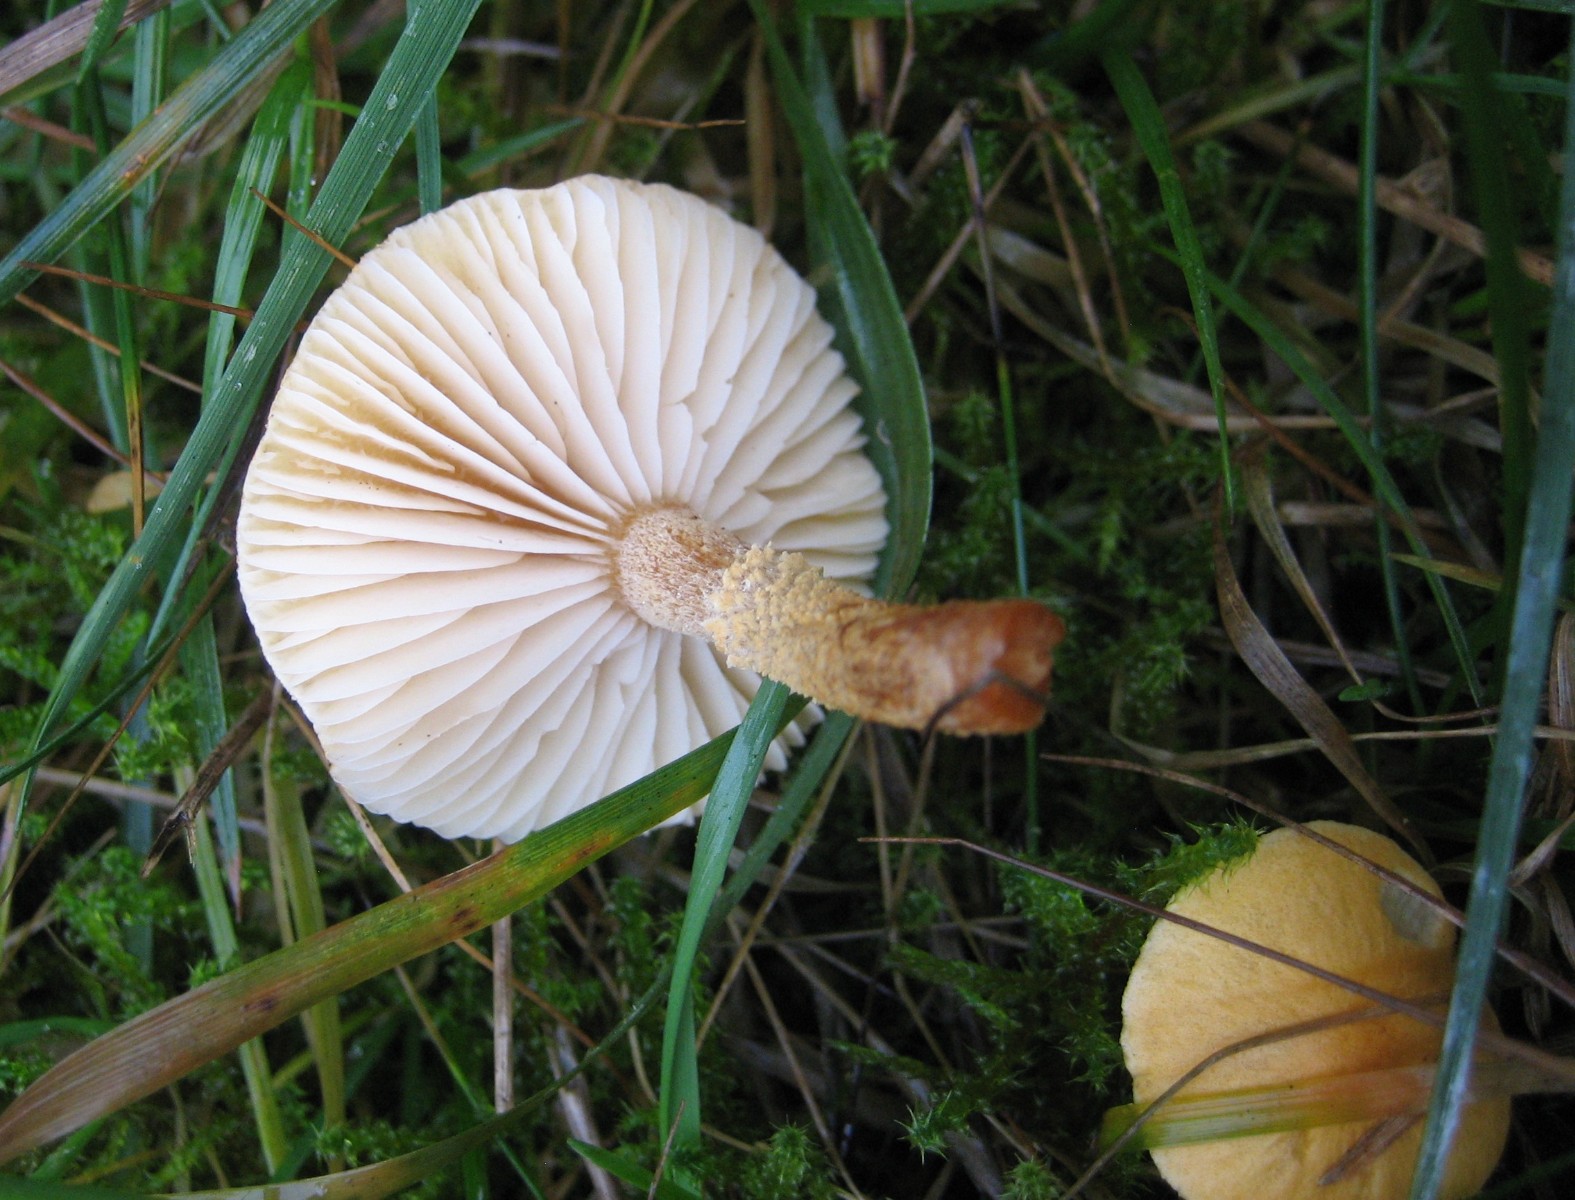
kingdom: Fungi
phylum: Basidiomycota
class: Agaricomycetes
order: Agaricales
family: Tricholomataceae
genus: Cystoderma
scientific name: Cystoderma amianthinum
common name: okkergul grynhat
